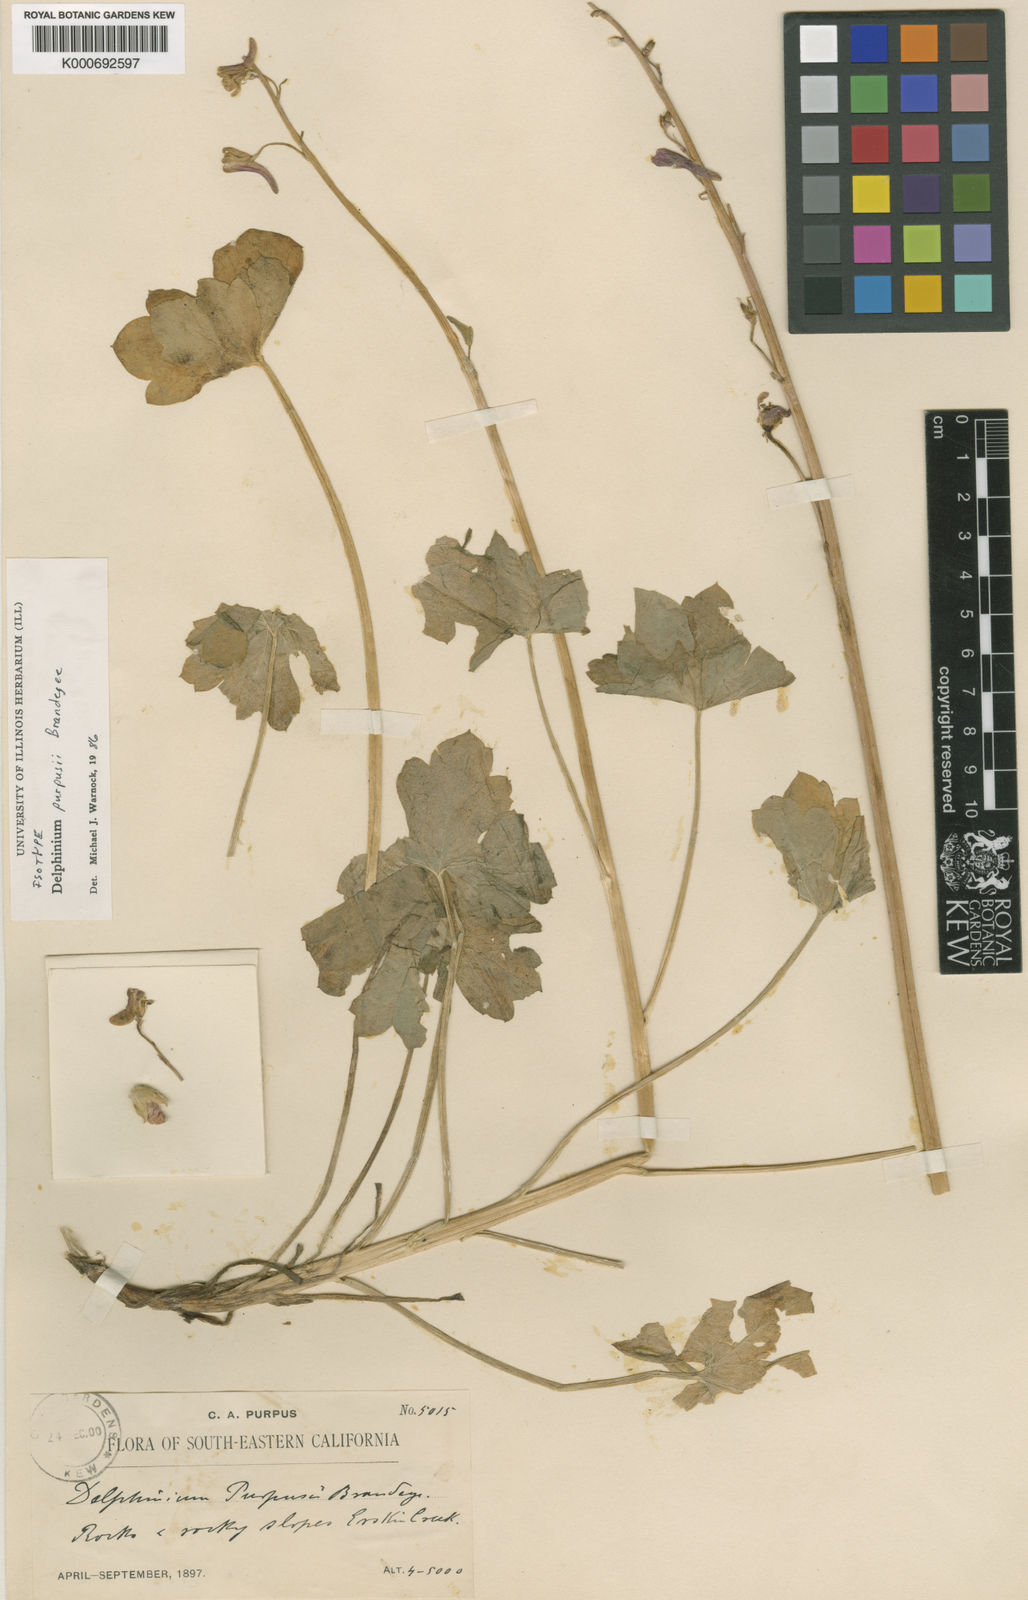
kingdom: Plantae
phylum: Tracheophyta
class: Magnoliopsida
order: Ranunculales
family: Ranunculaceae
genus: Delphinium
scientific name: Delphinium purpusii
